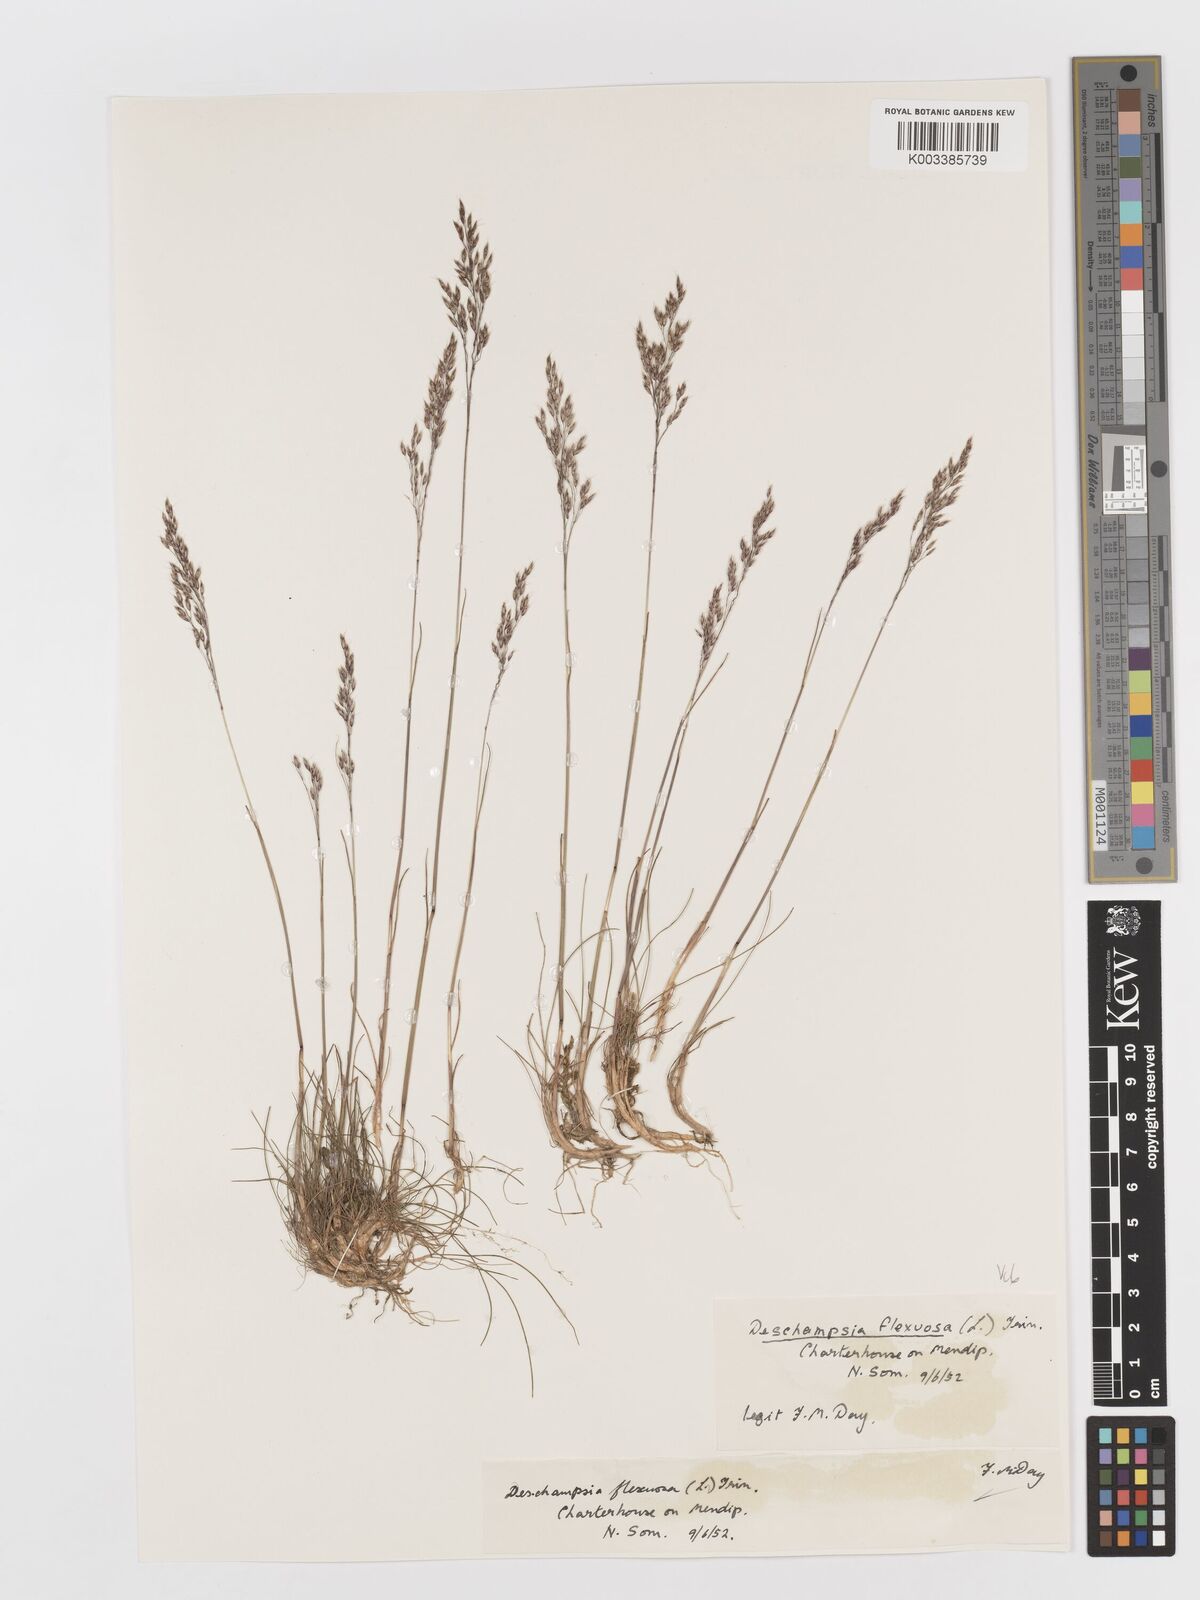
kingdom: Plantae
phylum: Tracheophyta
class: Liliopsida
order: Poales
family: Poaceae
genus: Avenella
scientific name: Avenella flexuosa
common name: Wavy hairgrass
